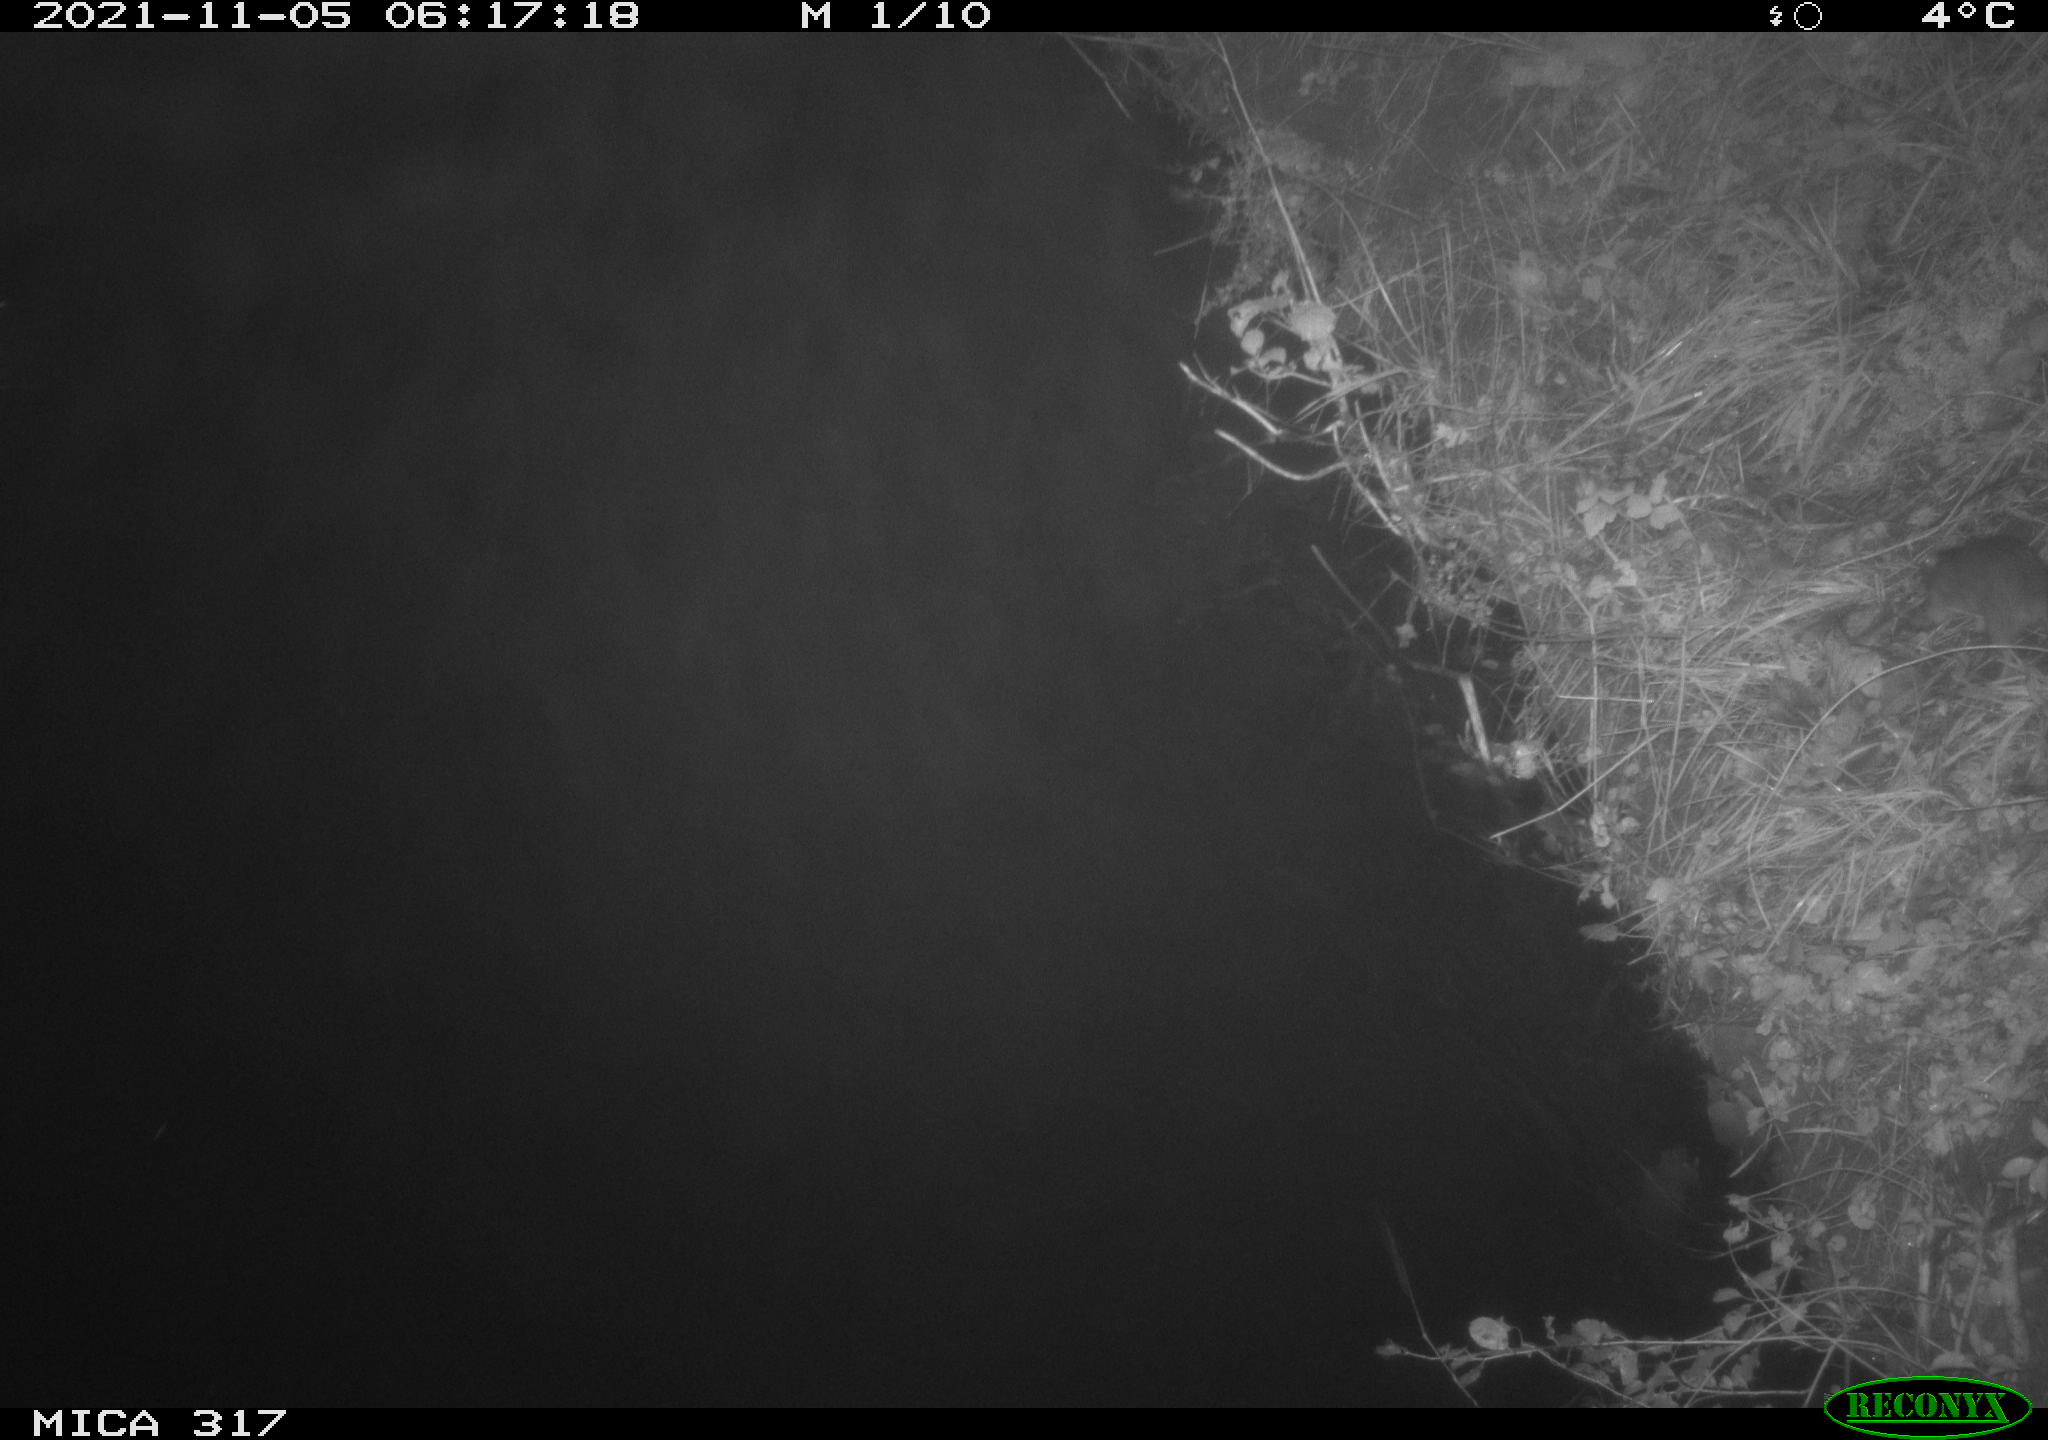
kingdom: Animalia
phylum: Chordata
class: Mammalia
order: Rodentia
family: Muridae
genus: Rattus
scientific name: Rattus norvegicus
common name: Brown rat
